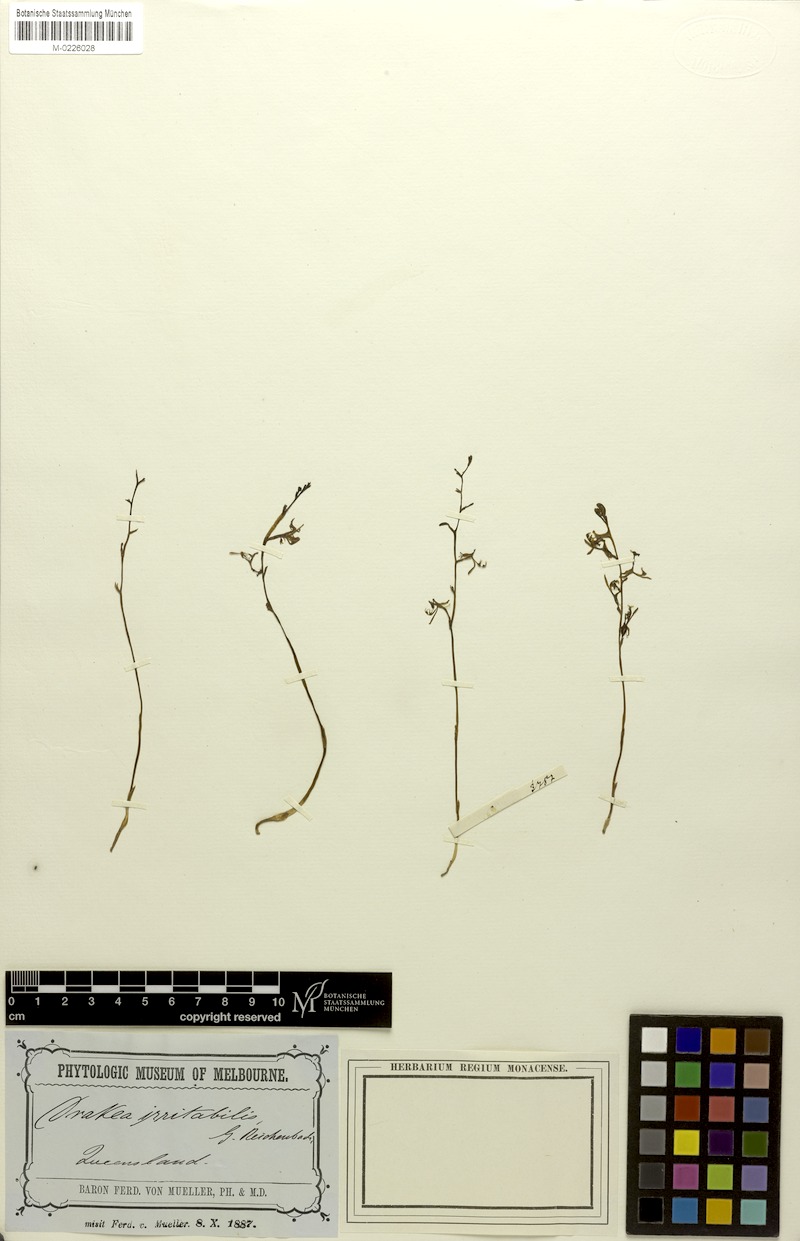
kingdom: Plantae
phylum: Tracheophyta
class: Liliopsida
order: Asparagales
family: Orchidaceae
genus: Arthrochilus
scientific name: Arthrochilus irritabilis
